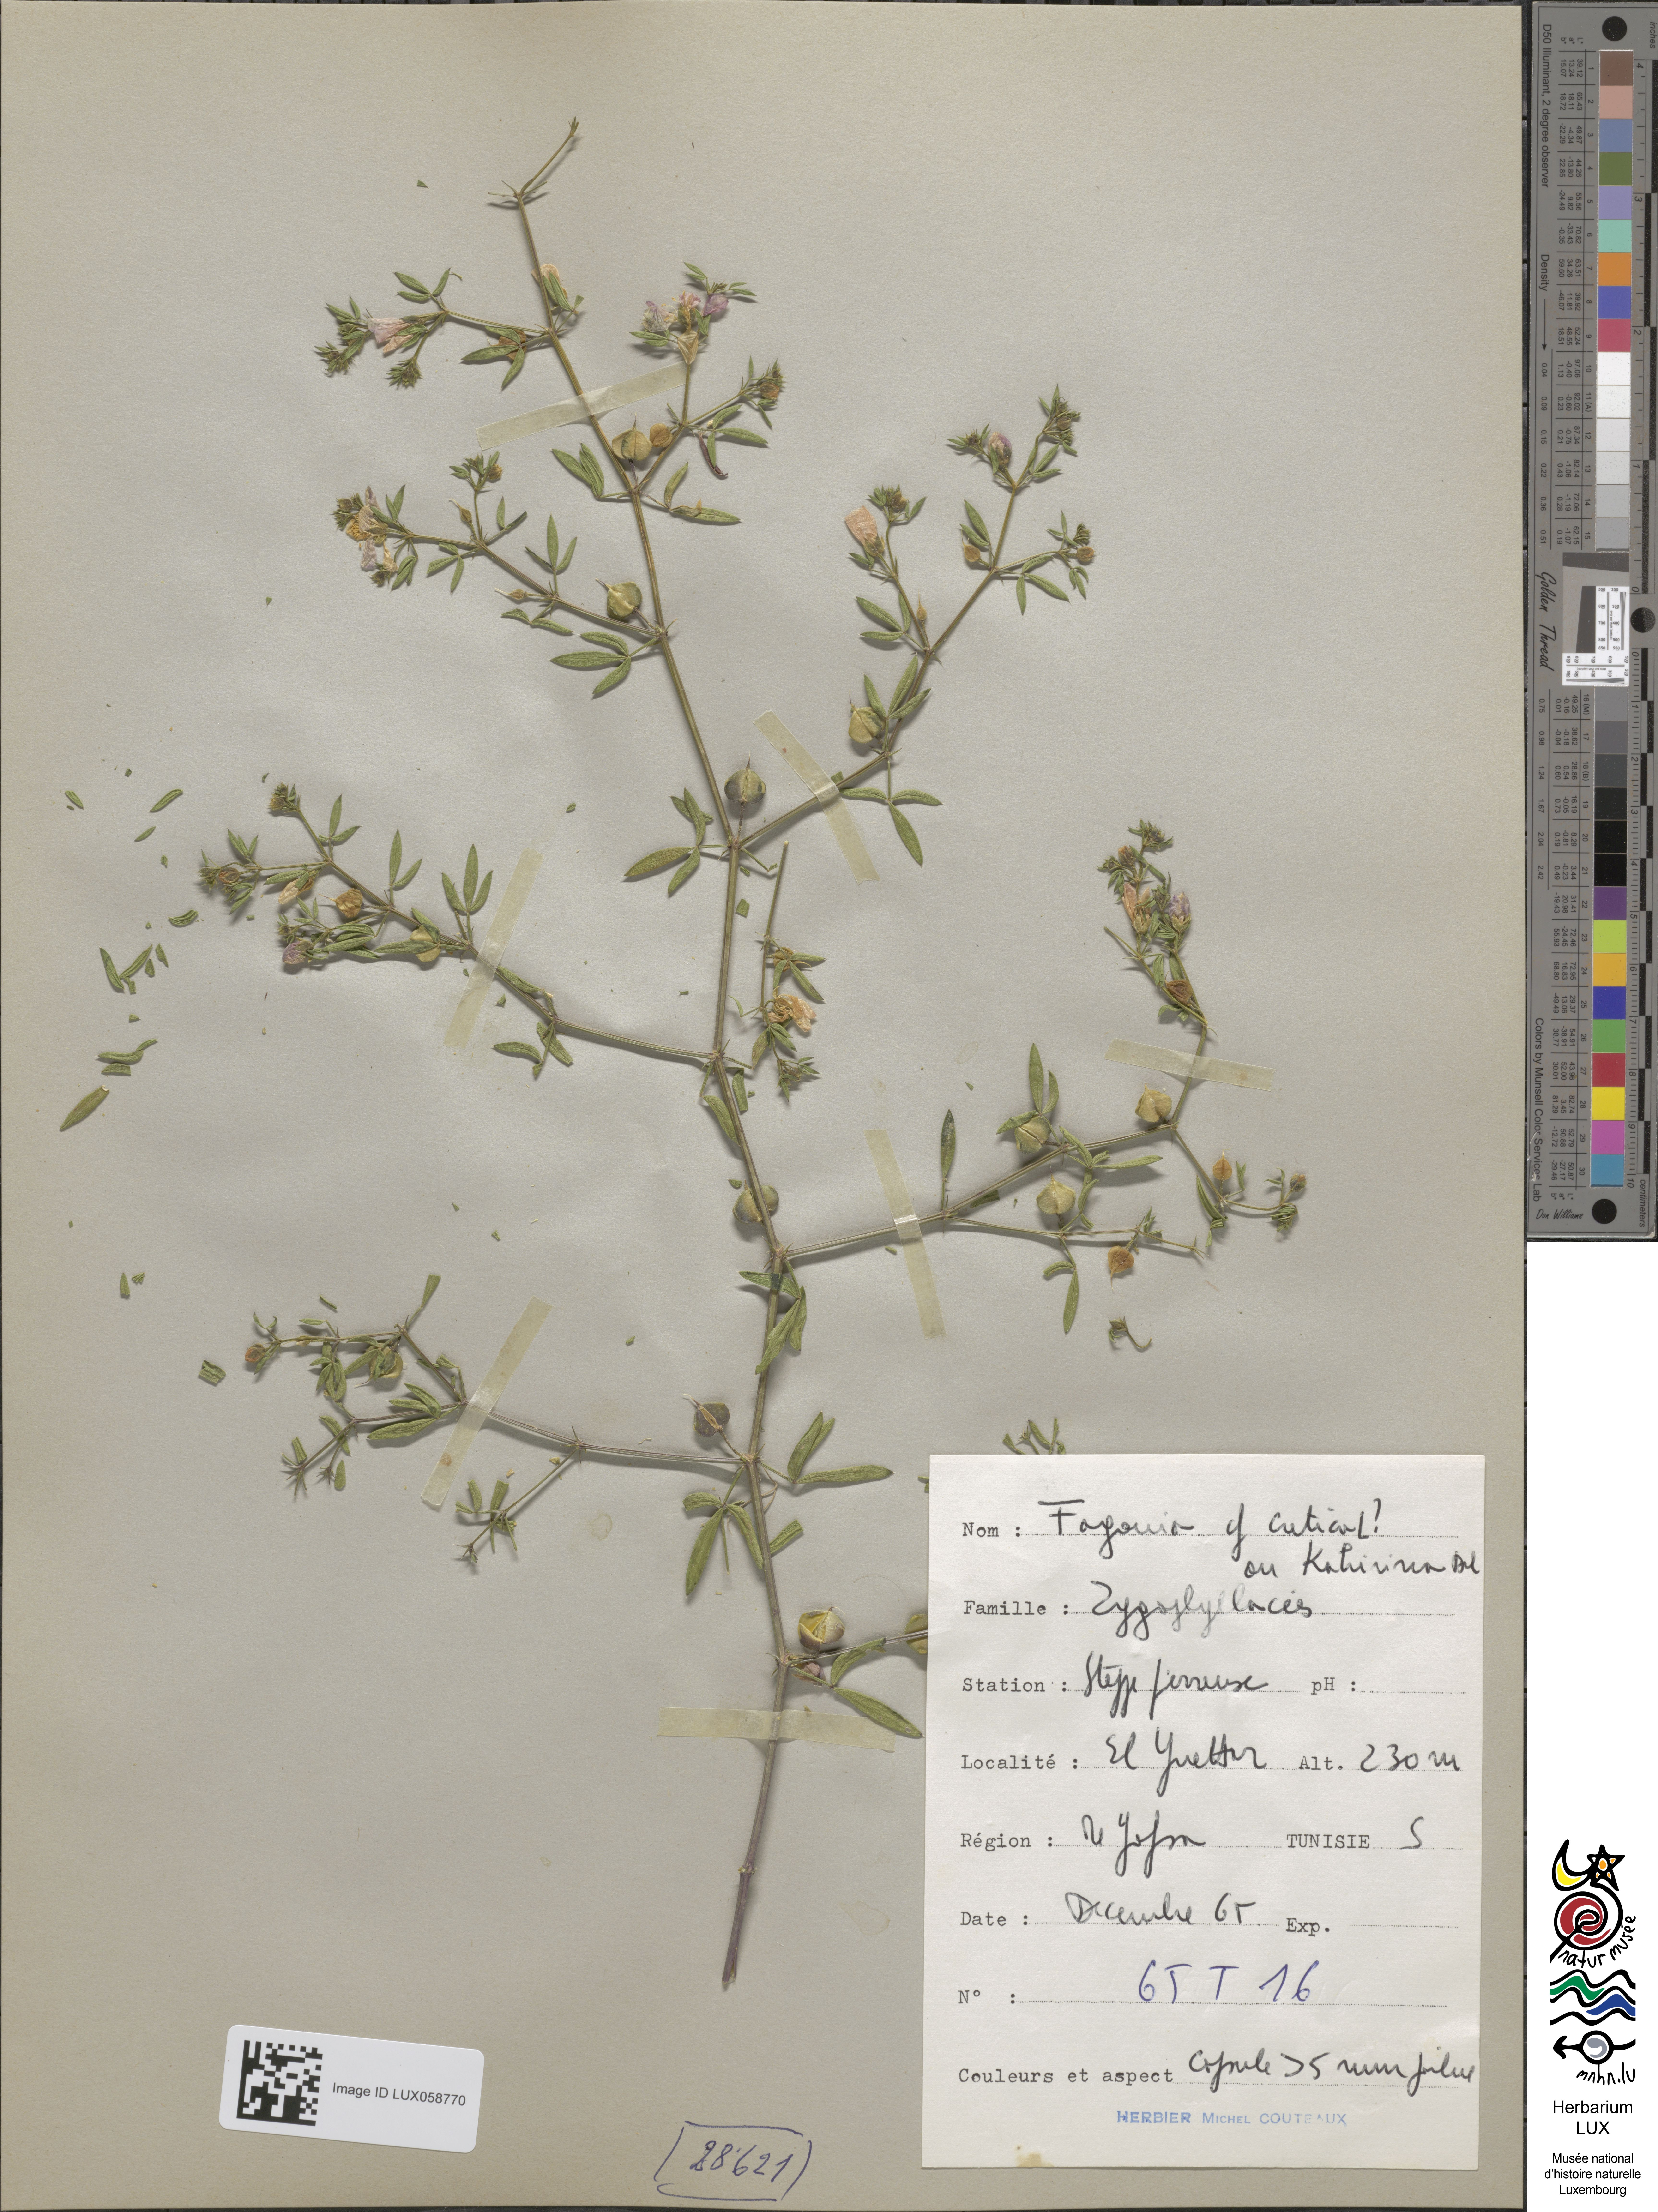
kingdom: Plantae
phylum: Tracheophyta
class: Magnoliopsida
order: Zygophyllales
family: Zygophyllaceae
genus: Fagonia
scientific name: Fagonia cretica
